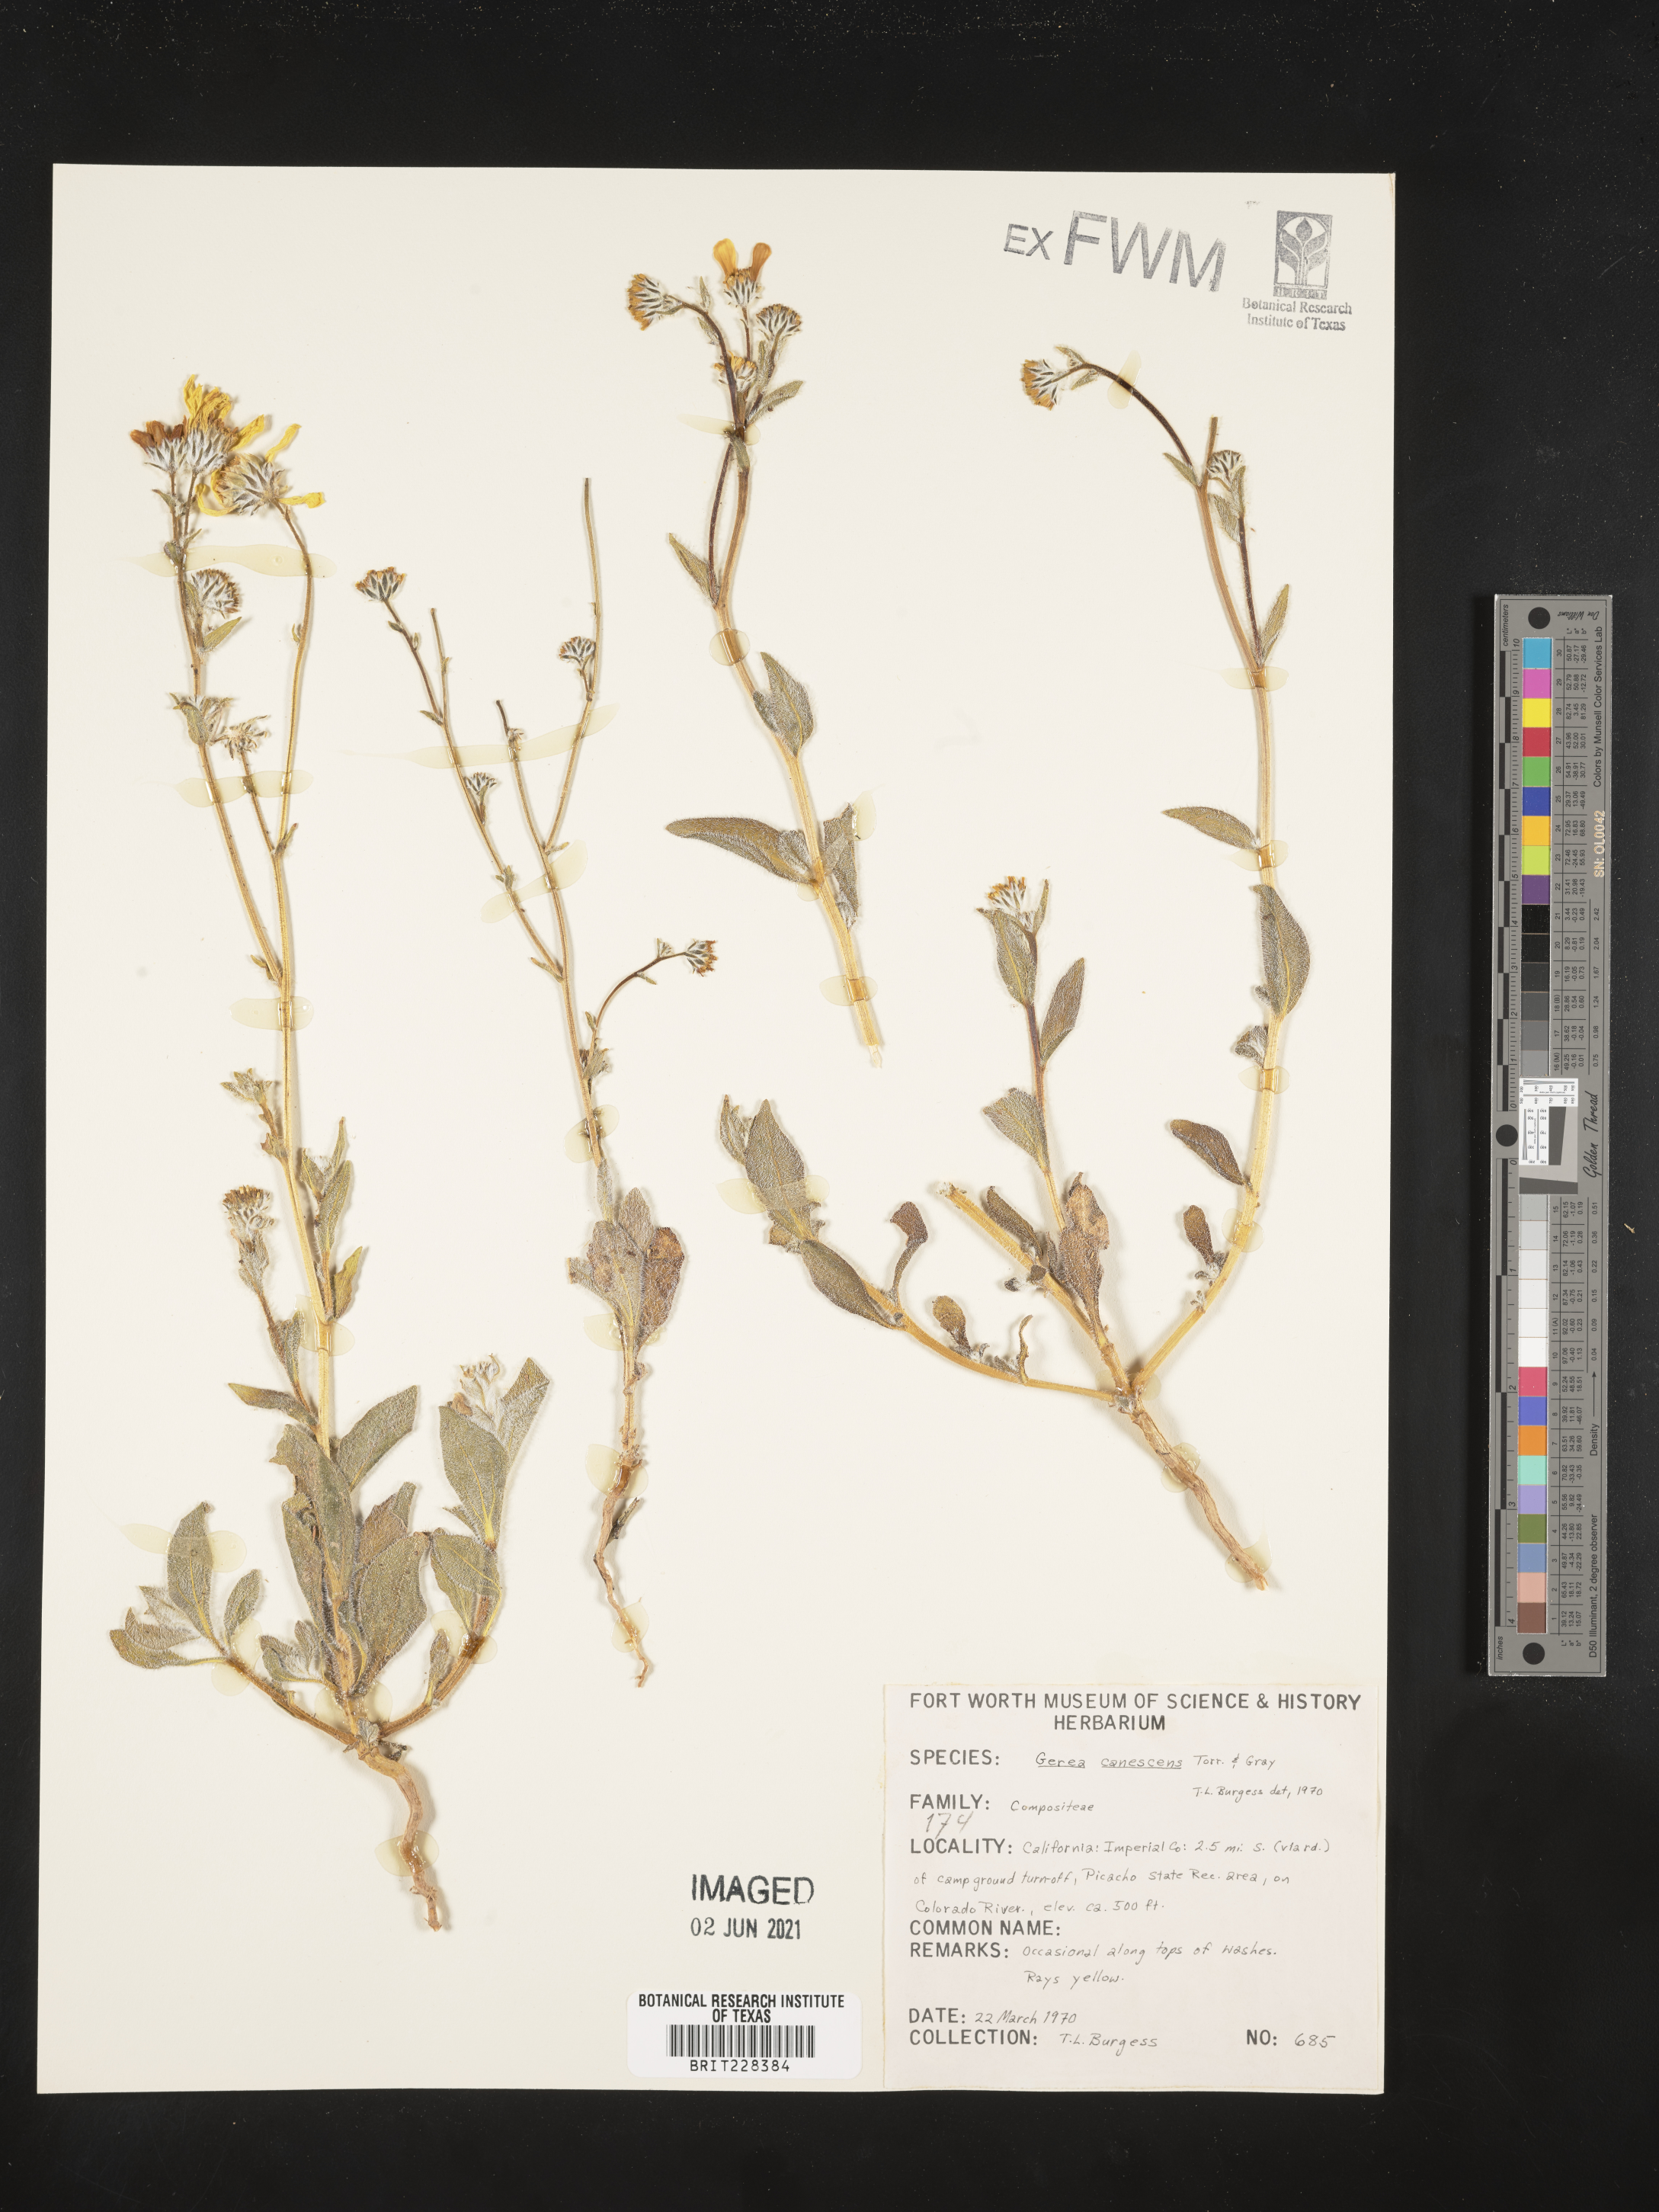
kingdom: Plantae
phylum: Tracheophyta
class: Magnoliopsida
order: Asterales
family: Asteraceae
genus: Geraea
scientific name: Geraea canescens
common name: Desert-gold
